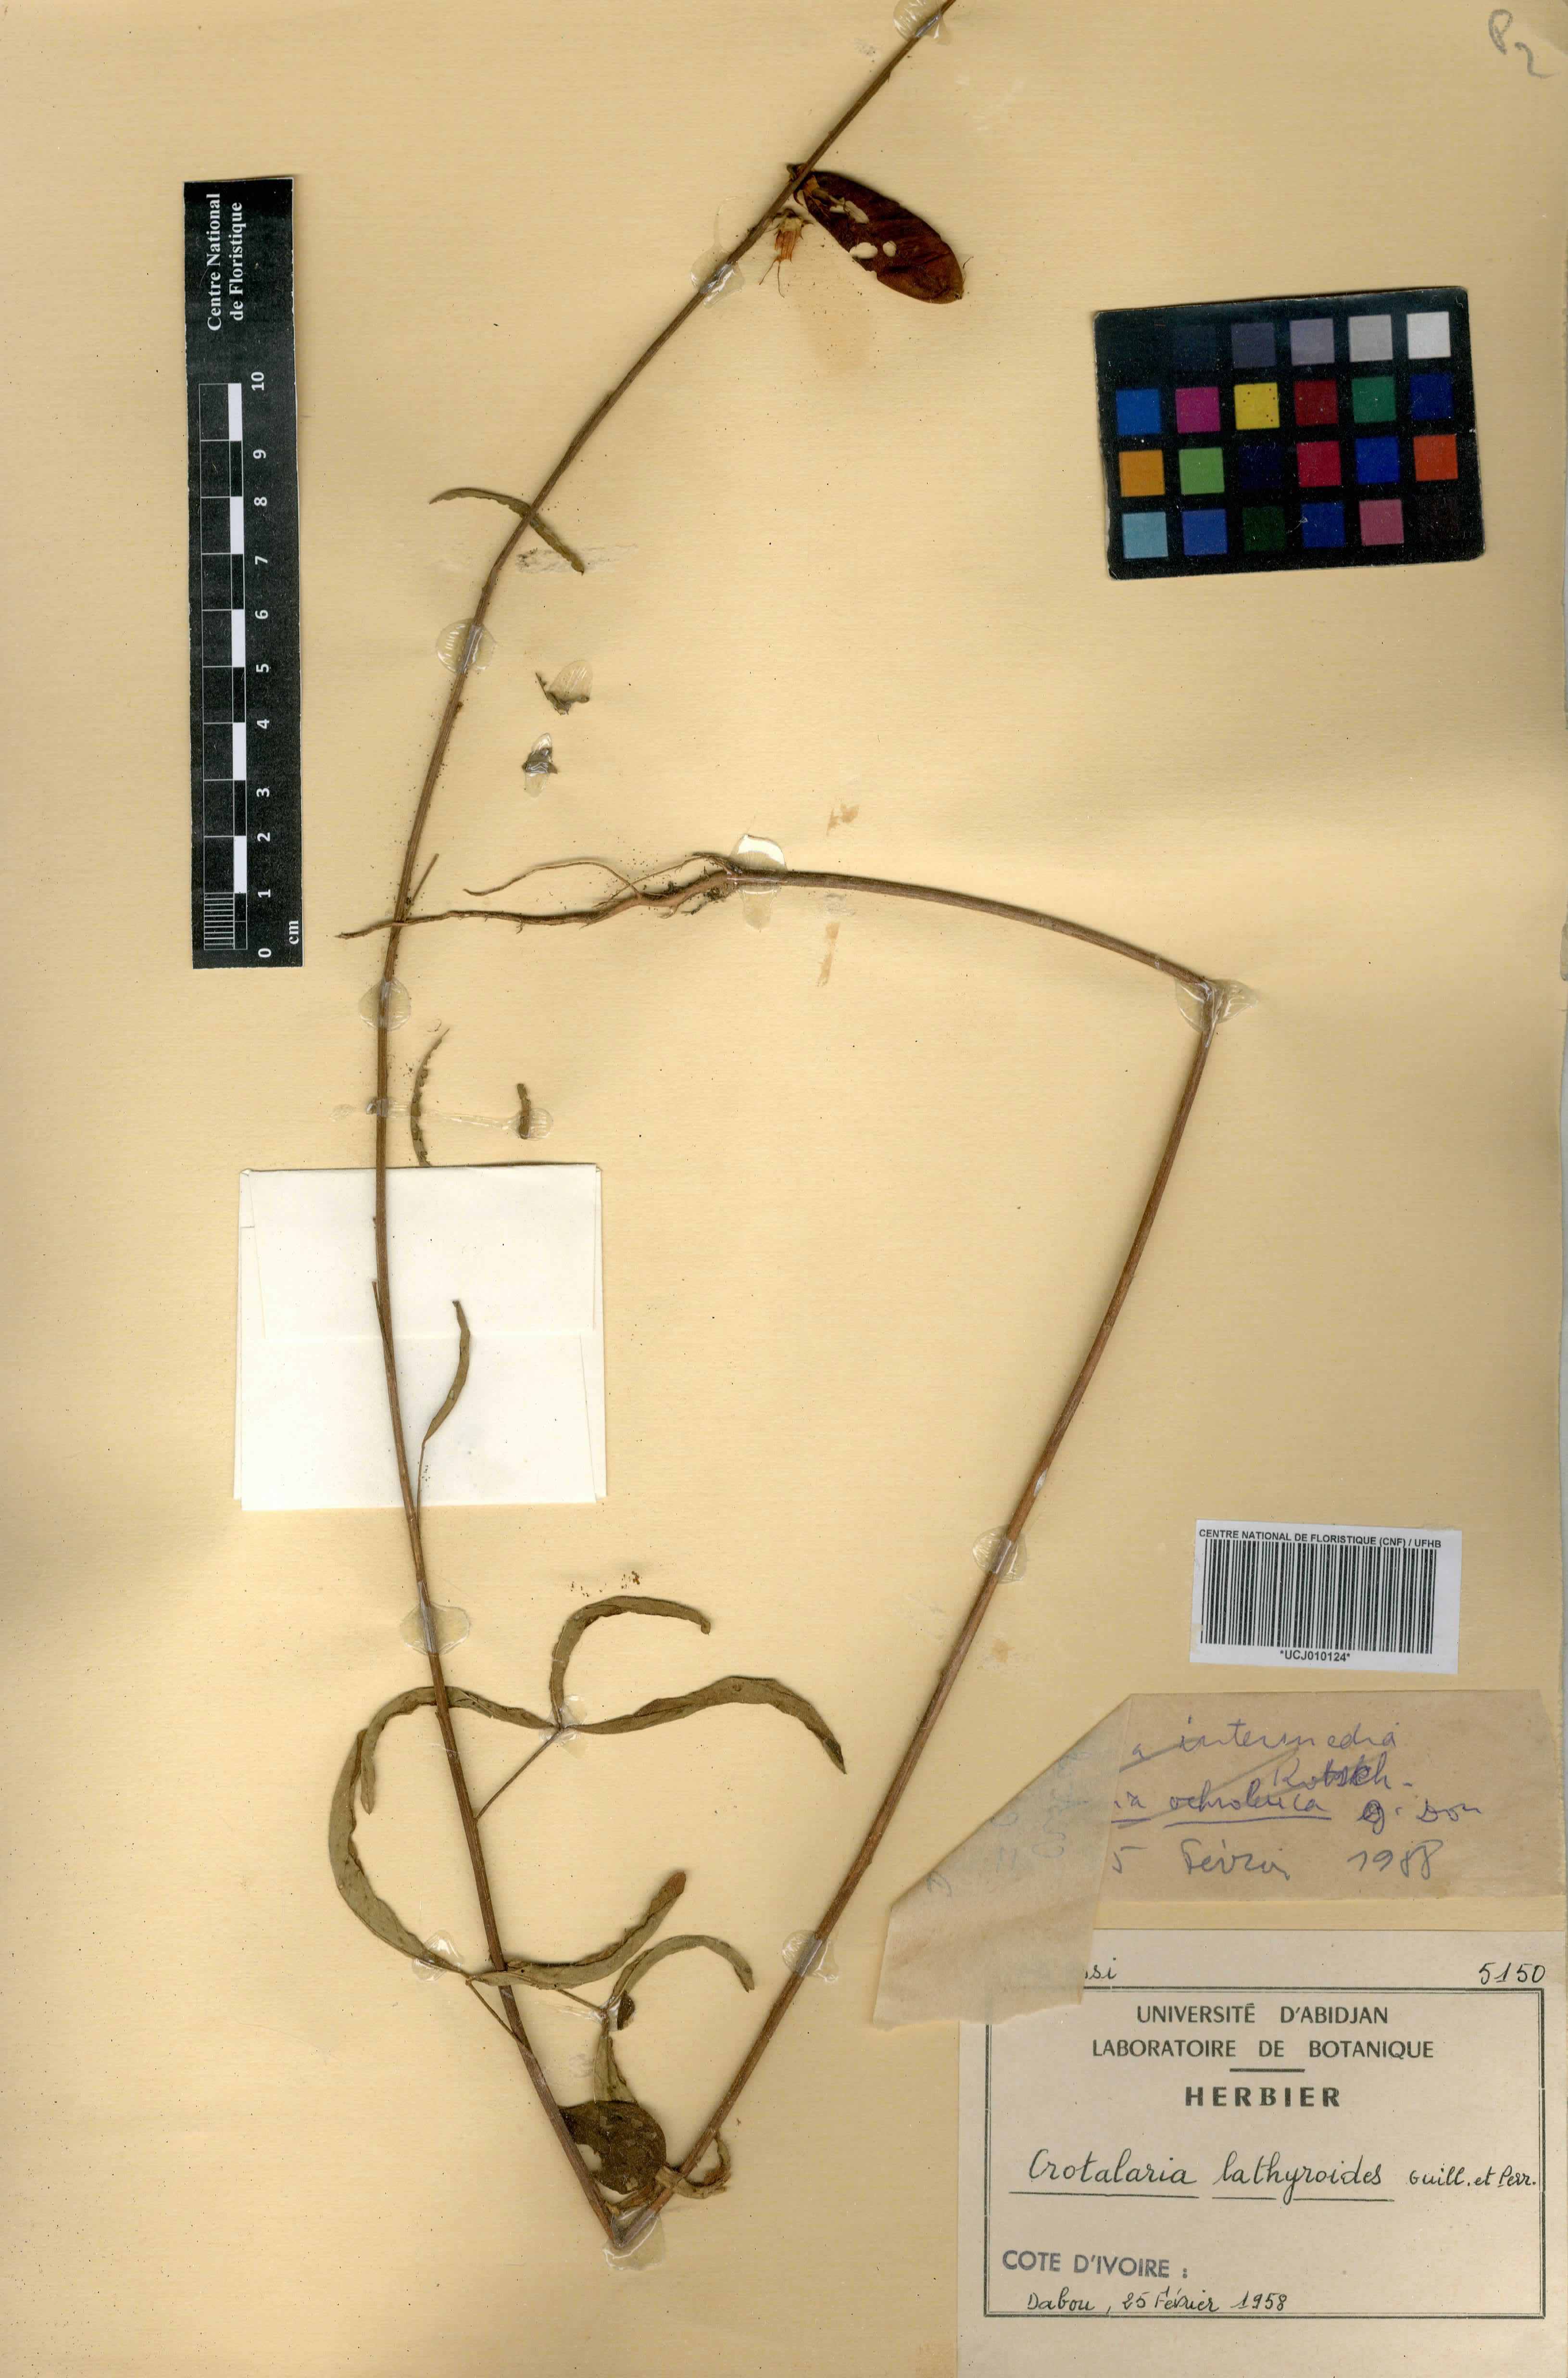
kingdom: Plantae
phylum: Tracheophyta
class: Magnoliopsida
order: Fabales
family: Fabaceae
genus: Crotalaria
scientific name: Crotalaria lathyroides
